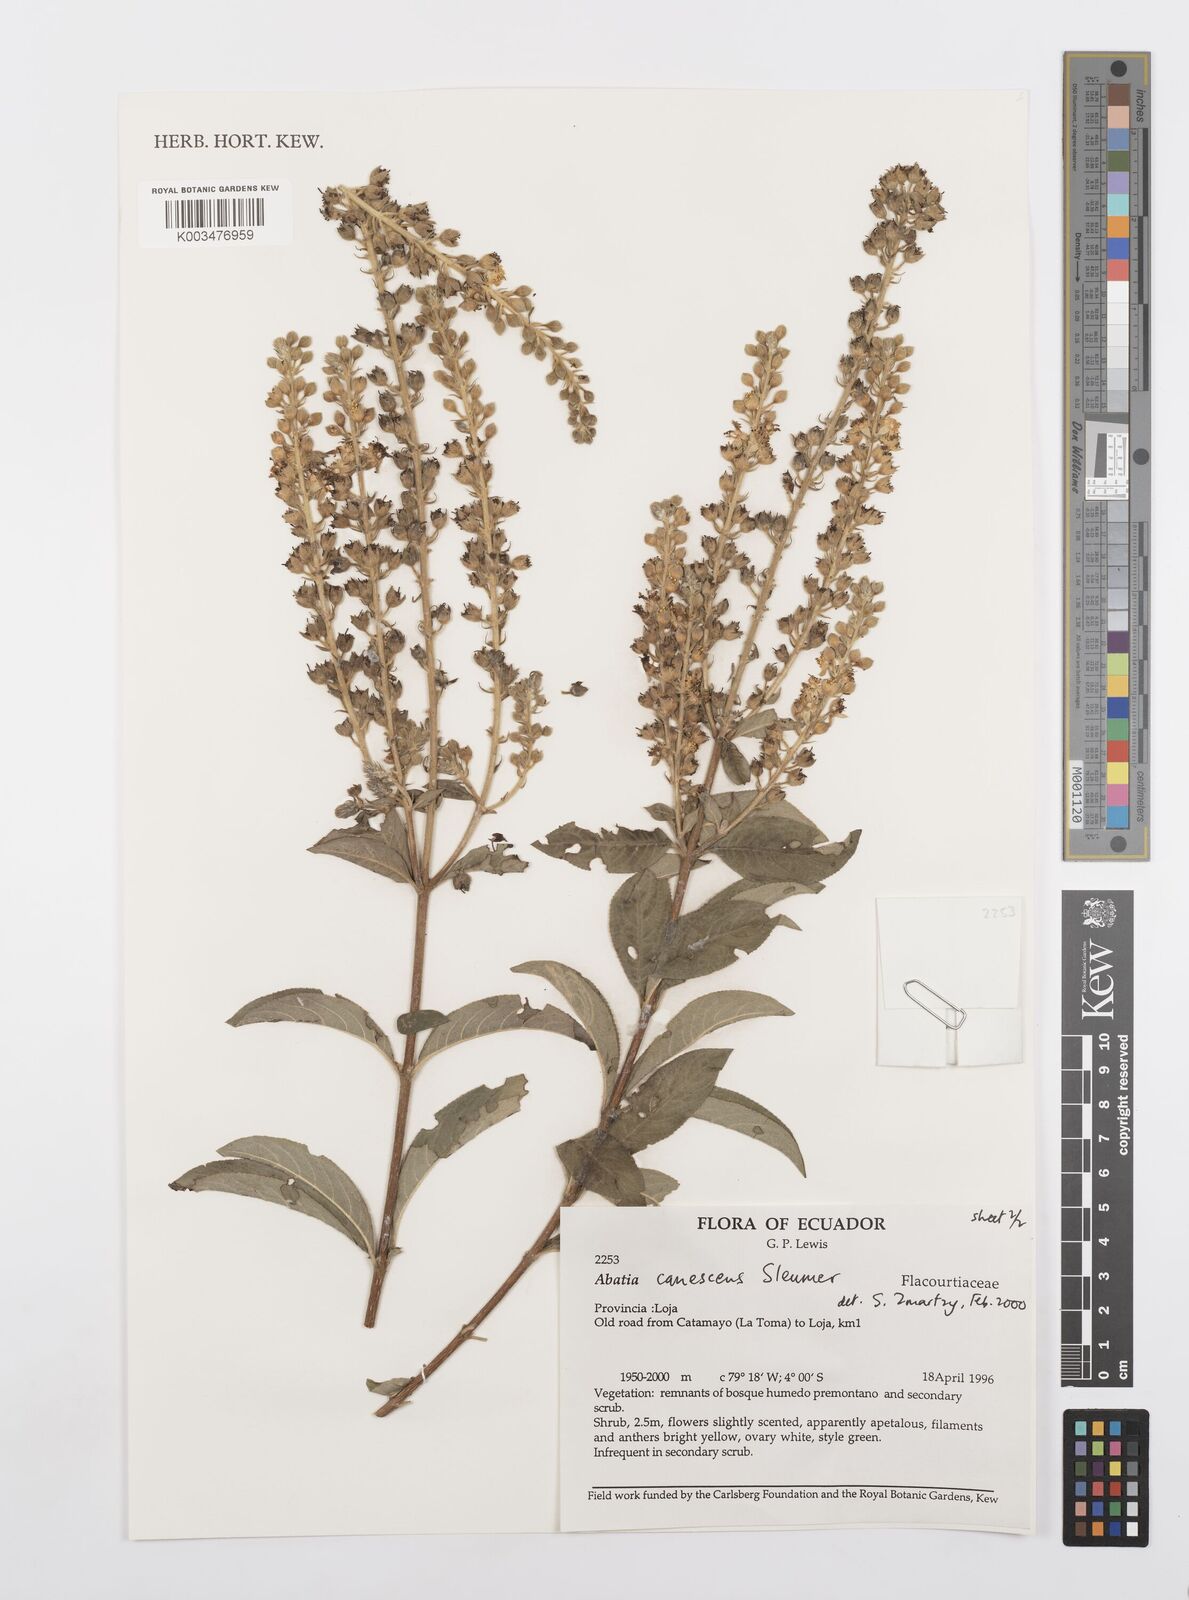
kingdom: Plantae
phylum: Tracheophyta
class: Magnoliopsida
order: Malpighiales
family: Salicaceae
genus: Abatia
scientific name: Abatia canescens
